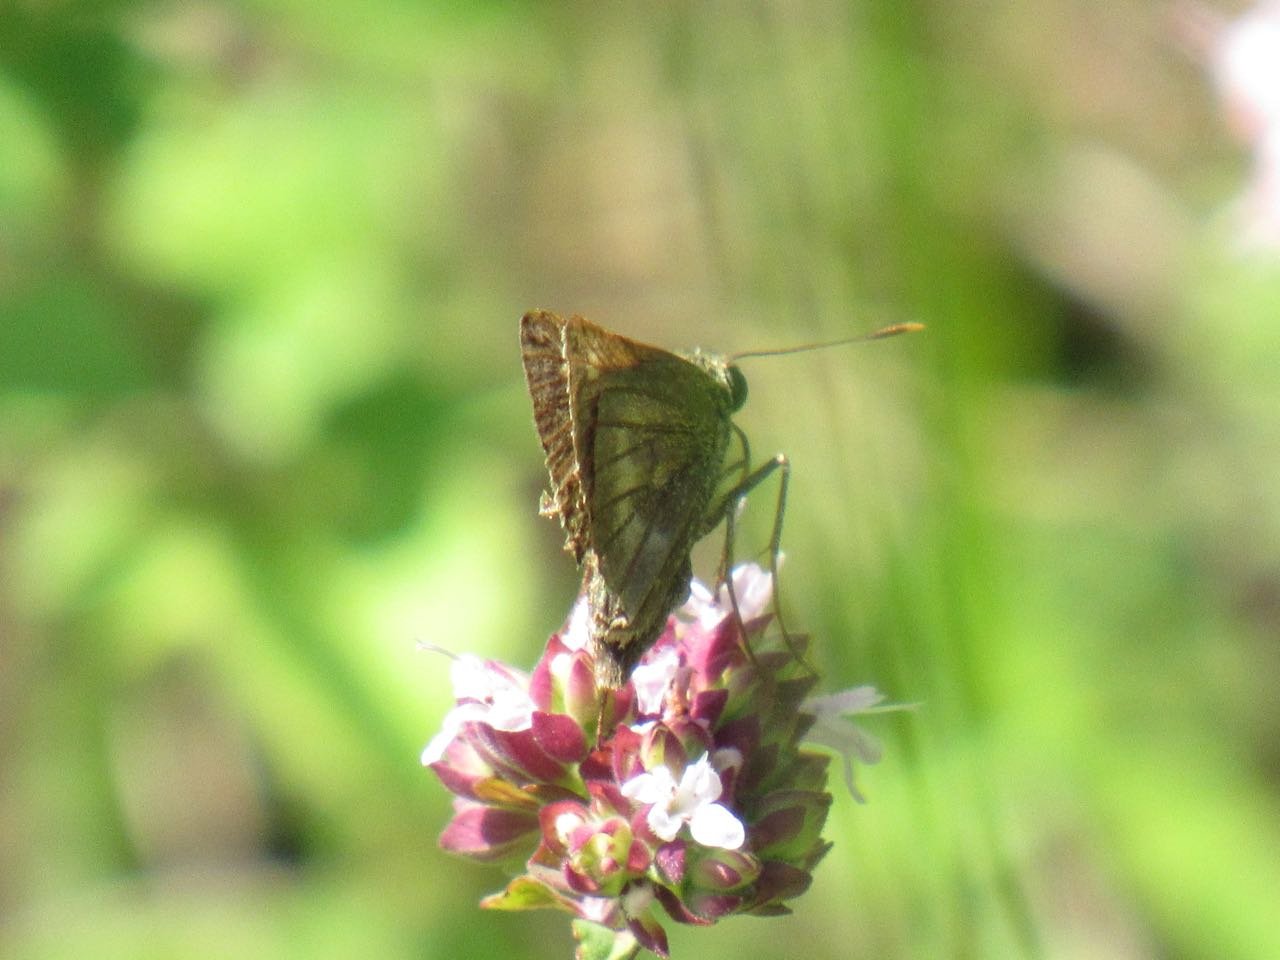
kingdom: Animalia
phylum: Arthropoda
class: Insecta
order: Lepidoptera
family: Hesperiidae
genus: Polites
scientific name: Polites egeremet
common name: Northern Broken-Dash
